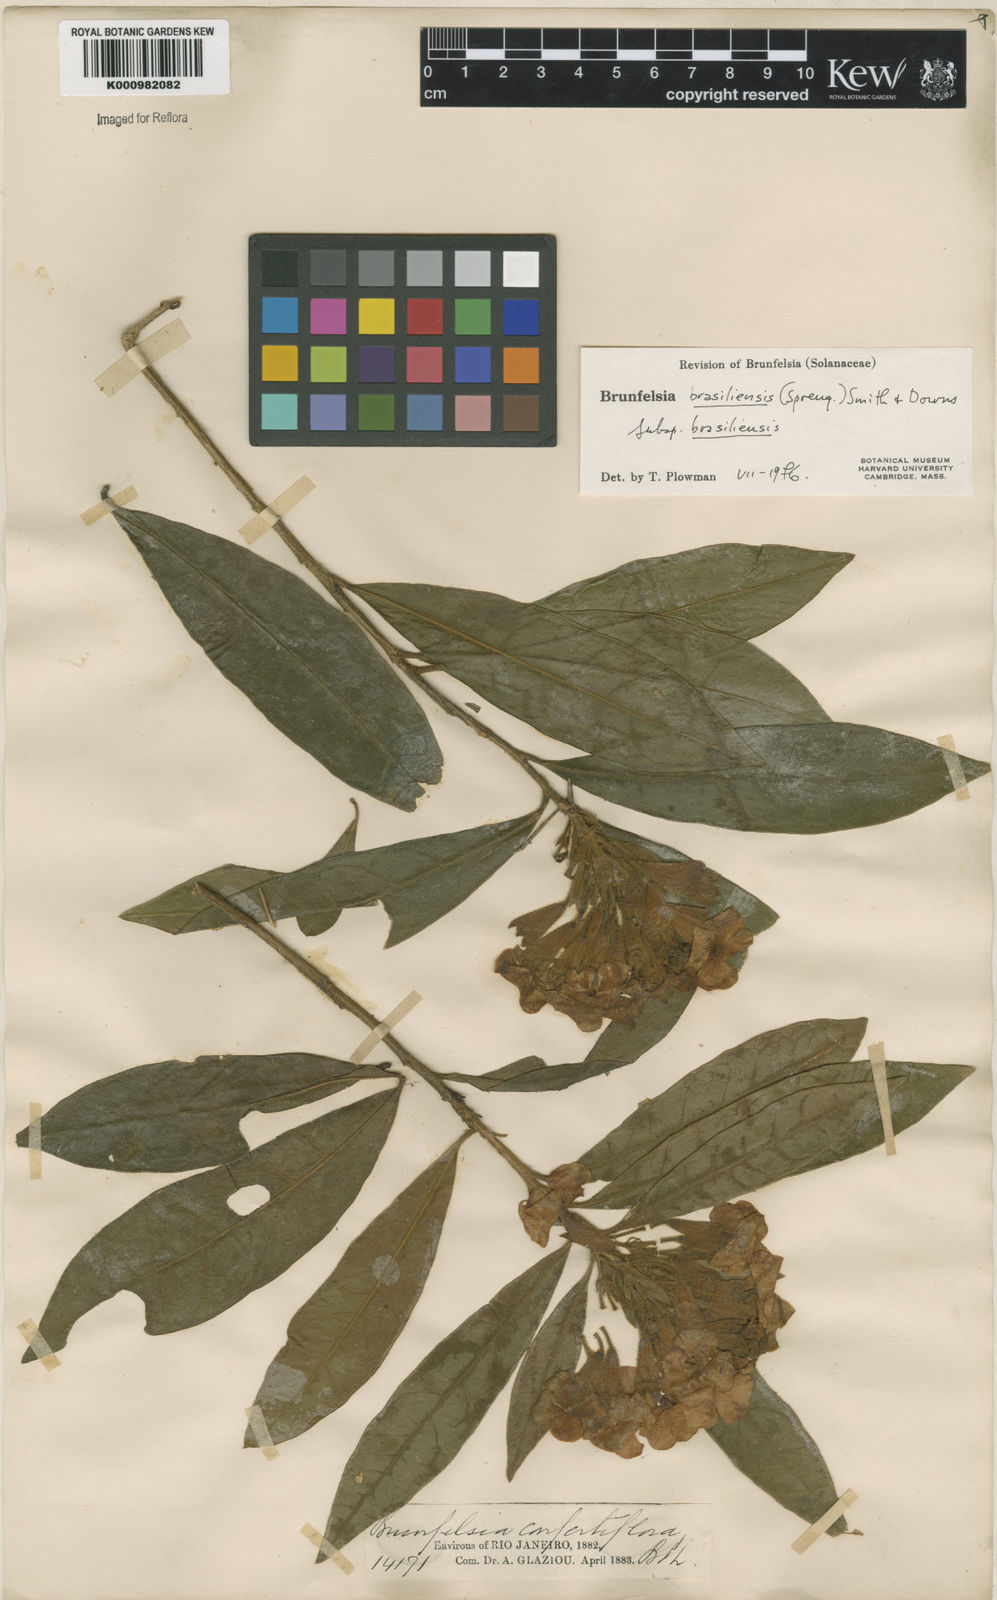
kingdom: Plantae
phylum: Tracheophyta
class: Magnoliopsida
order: Solanales
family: Solanaceae
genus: Brunfelsia
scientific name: Brunfelsia brasiliensis
